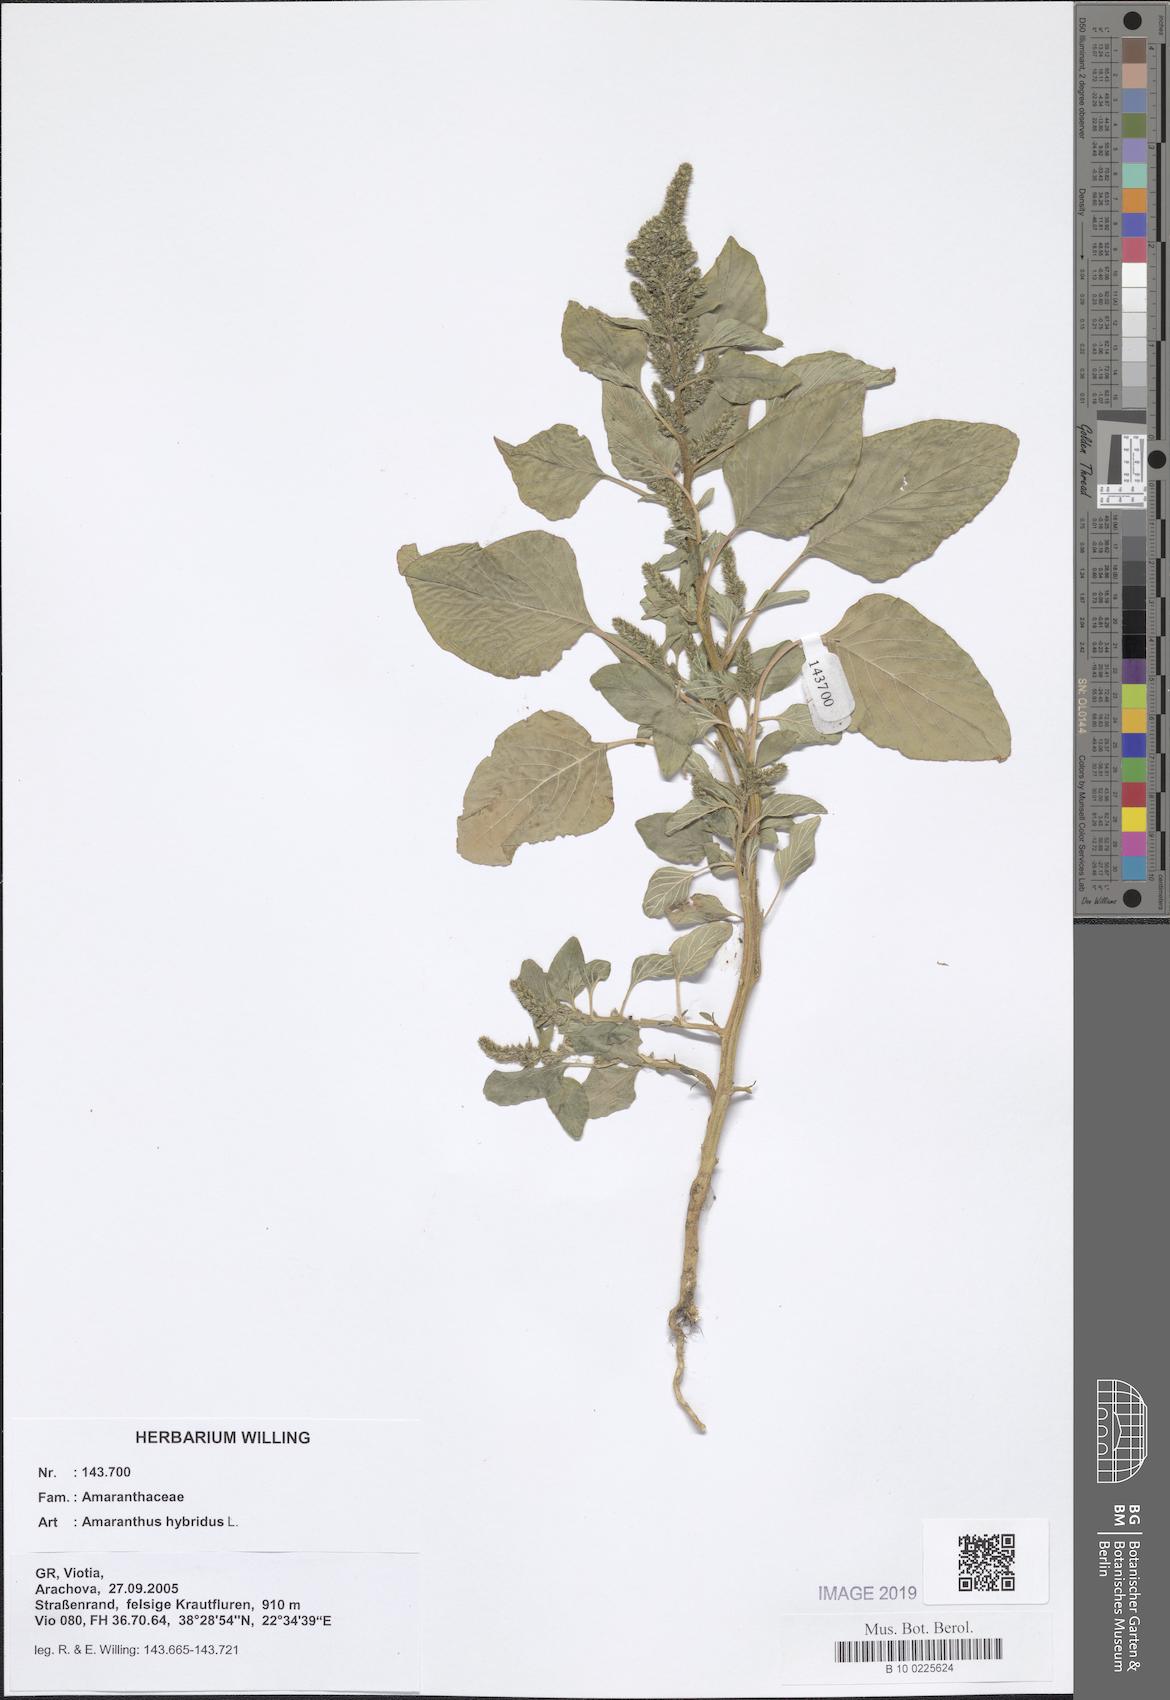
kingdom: Plantae
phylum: Tracheophyta
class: Magnoliopsida
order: Caryophyllales
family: Amaranthaceae
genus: Amaranthus
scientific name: Amaranthus hybridus
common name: Green amaranth
